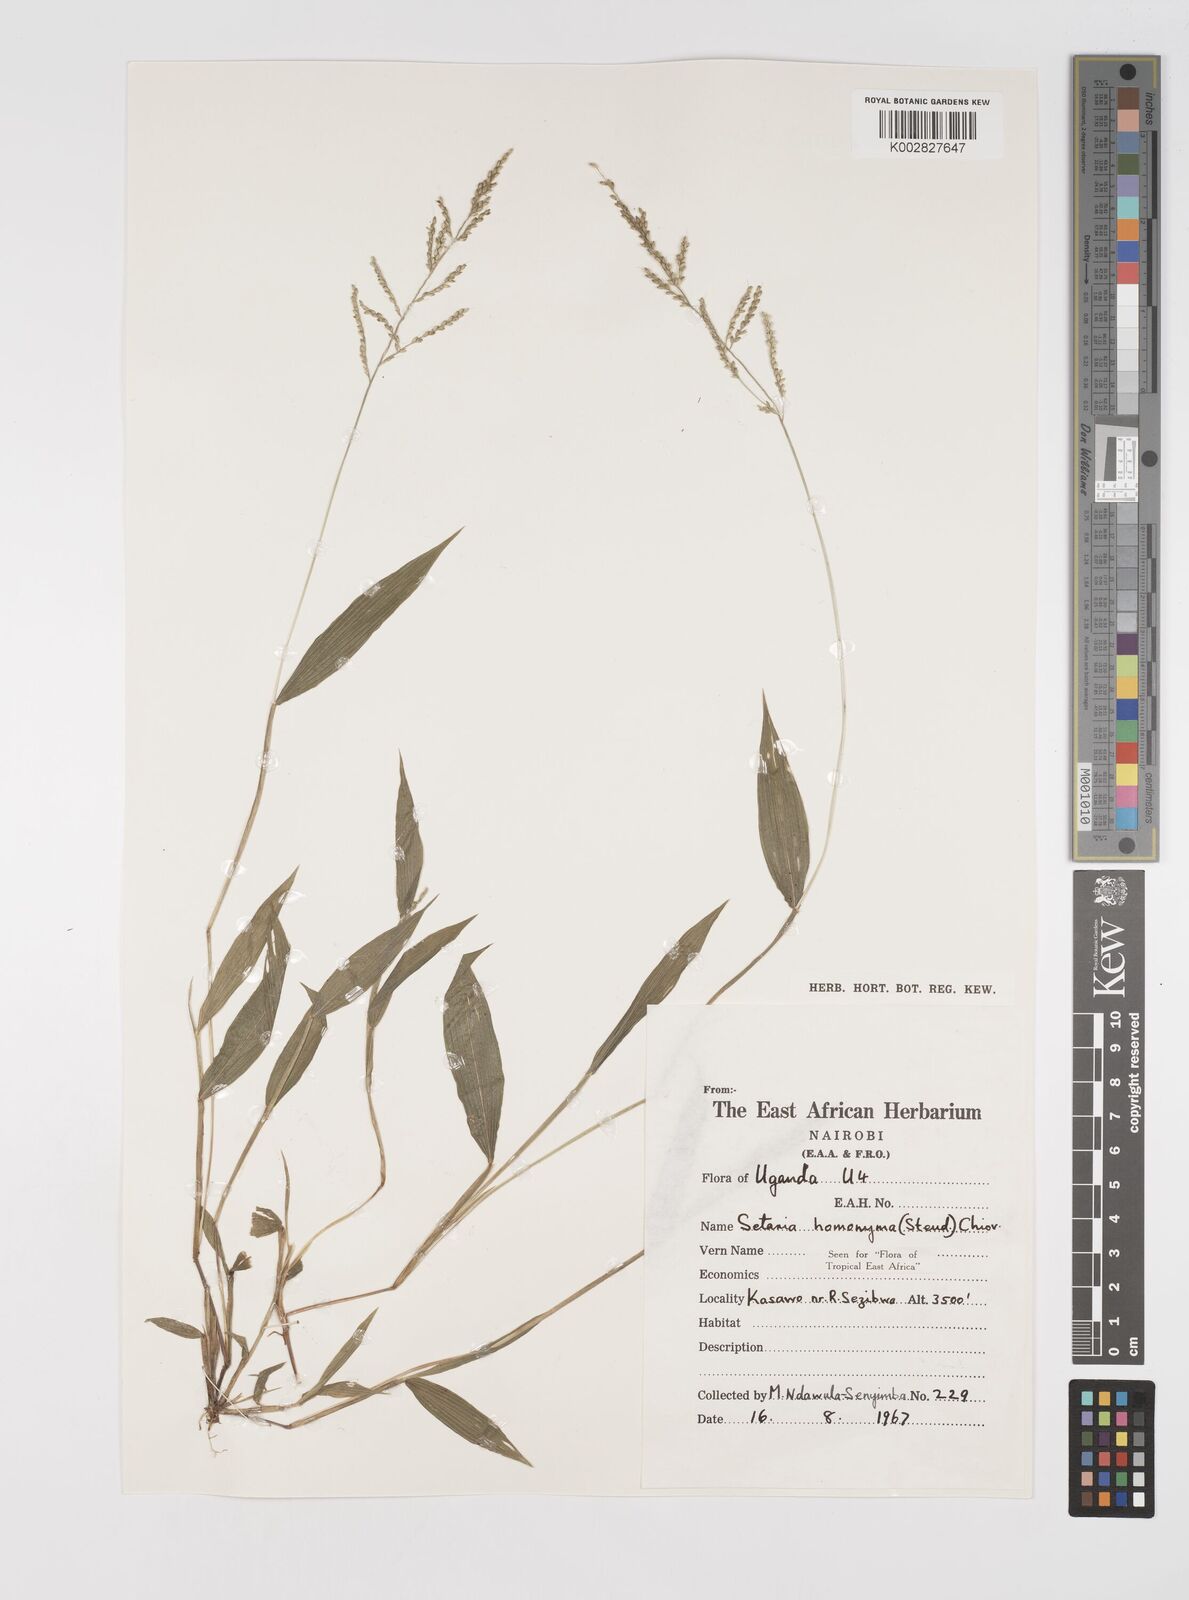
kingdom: Plantae
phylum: Tracheophyta
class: Liliopsida
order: Poales
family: Poaceae
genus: Setaria
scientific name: Setaria homonyma
